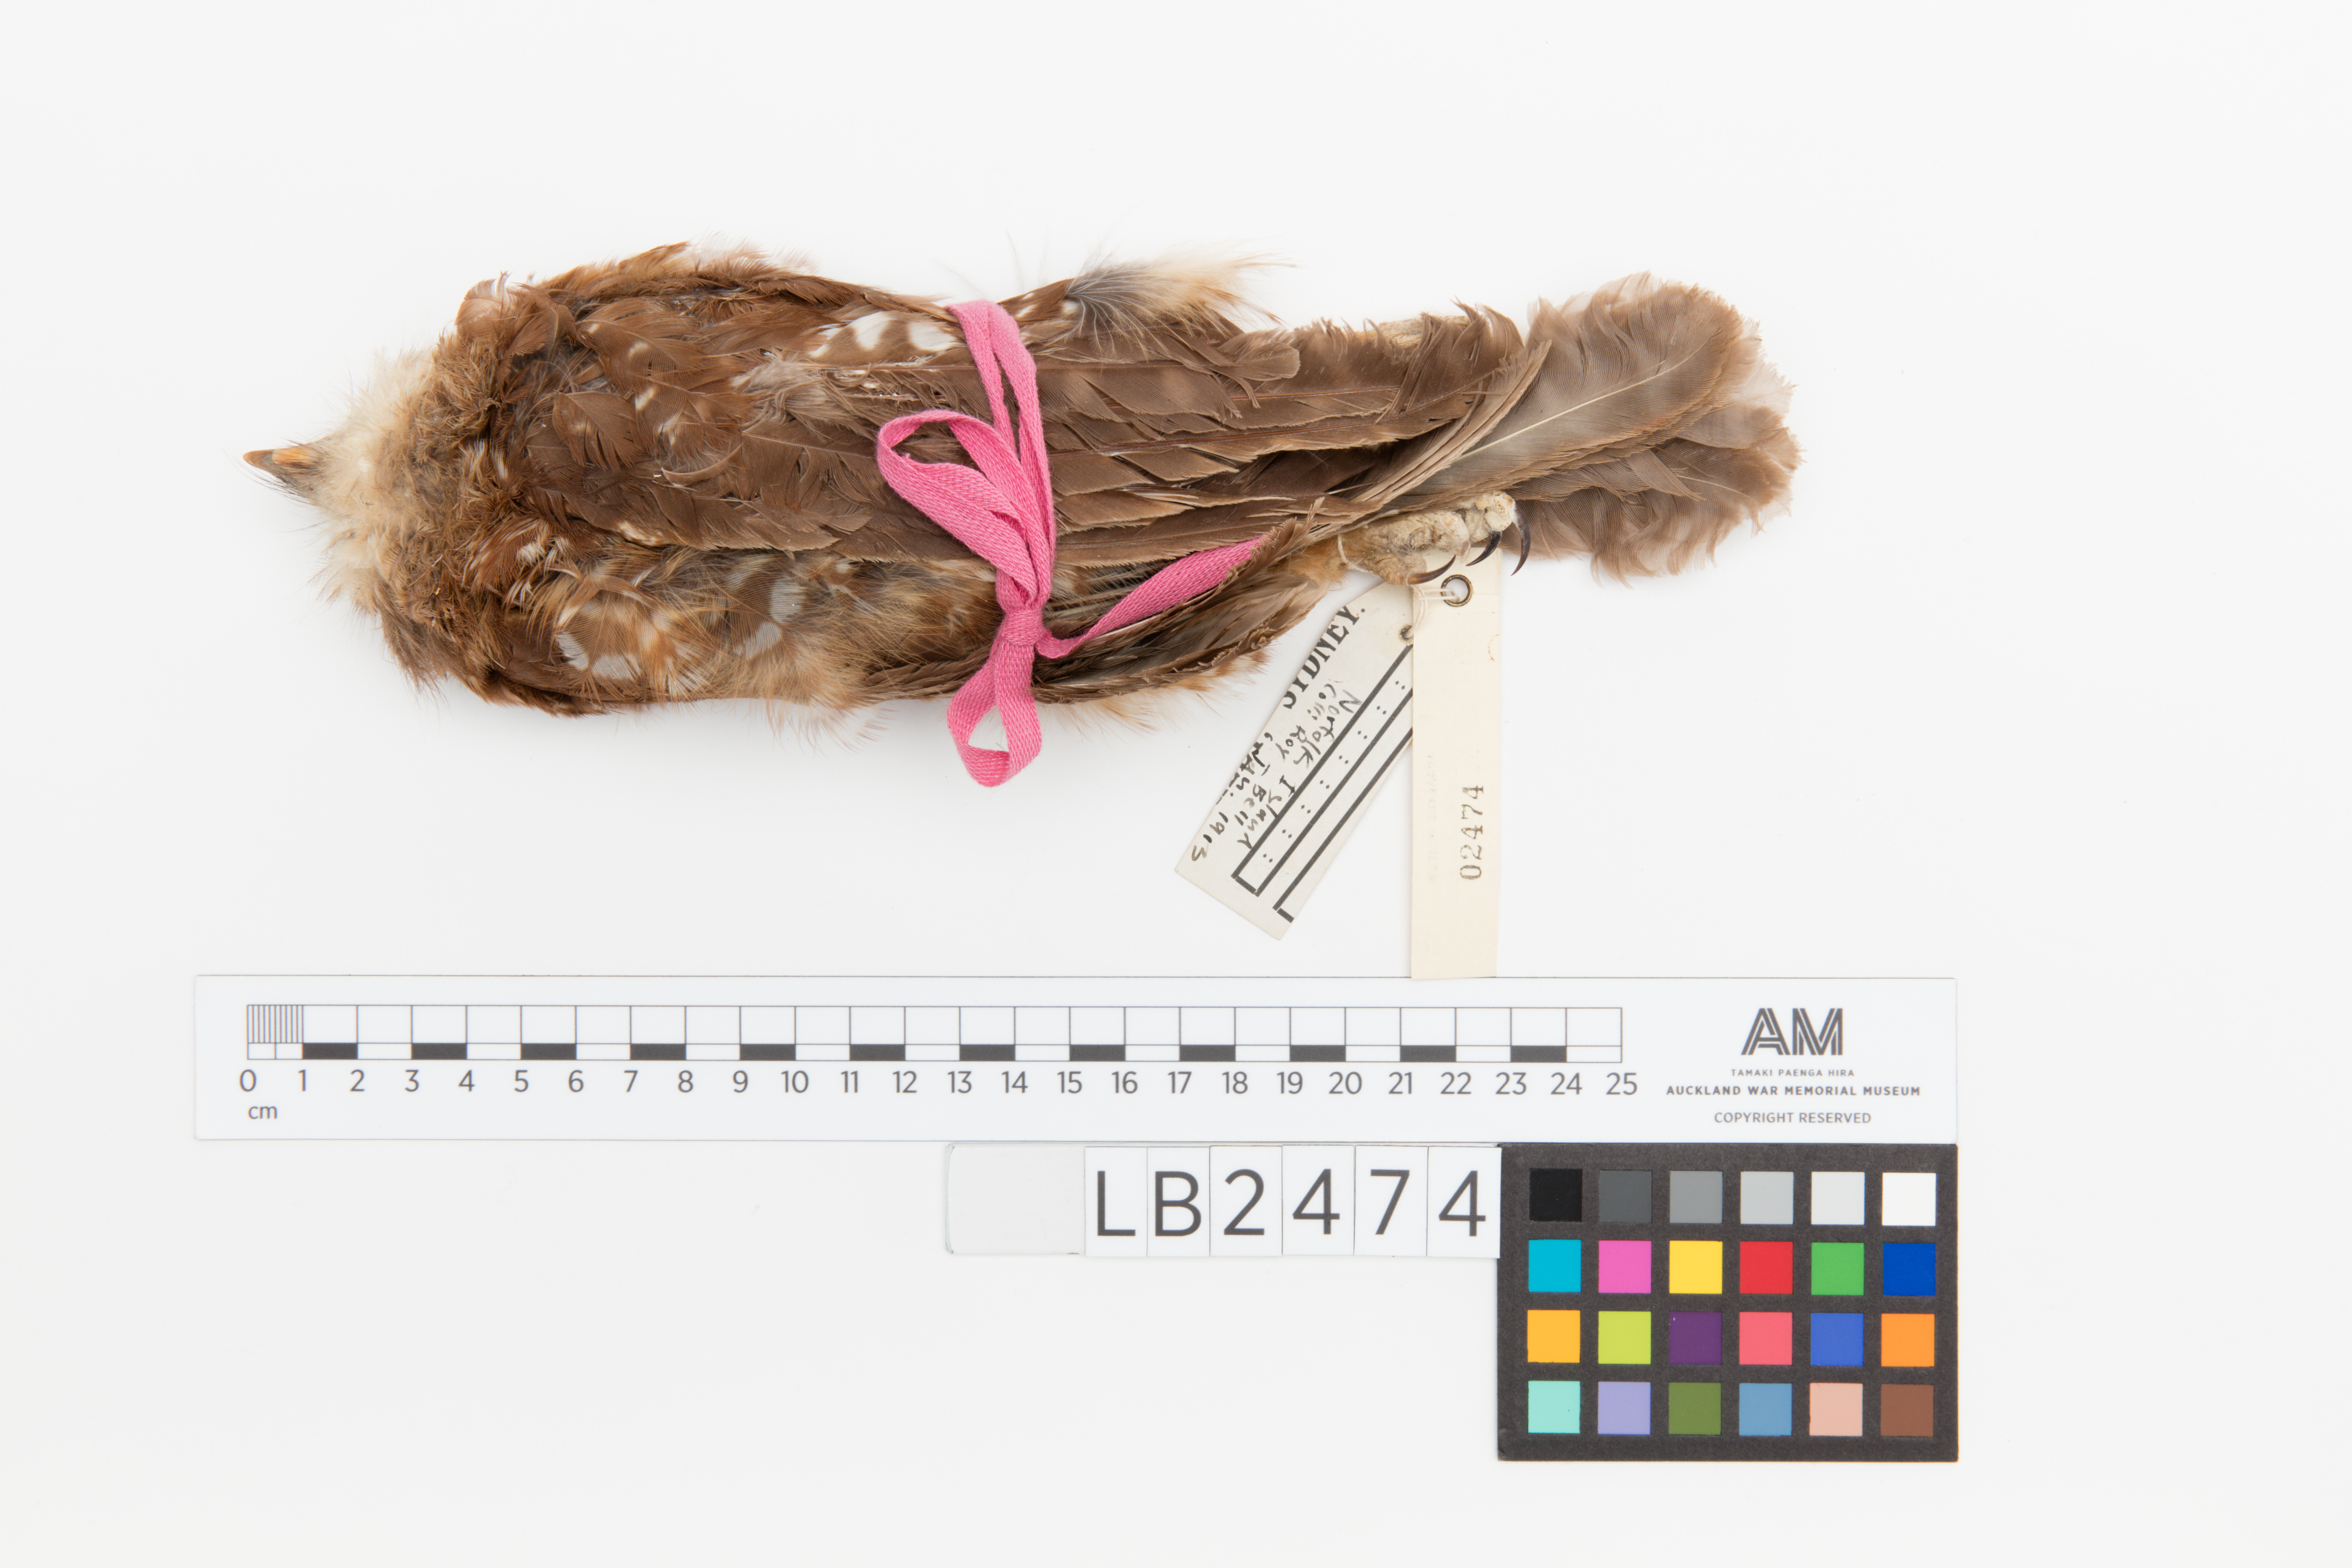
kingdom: Animalia
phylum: Chordata
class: Aves
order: Strigiformes
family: Strigidae
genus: Ninox
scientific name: Ninox novaeseelandiae
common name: Morepork
